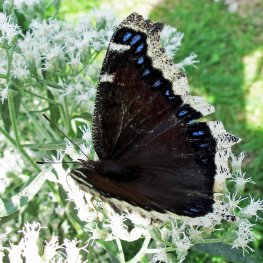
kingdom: Animalia
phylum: Arthropoda
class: Insecta
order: Lepidoptera
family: Nymphalidae
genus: Nymphalis
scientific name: Nymphalis antiopa
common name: Mourning Cloak
